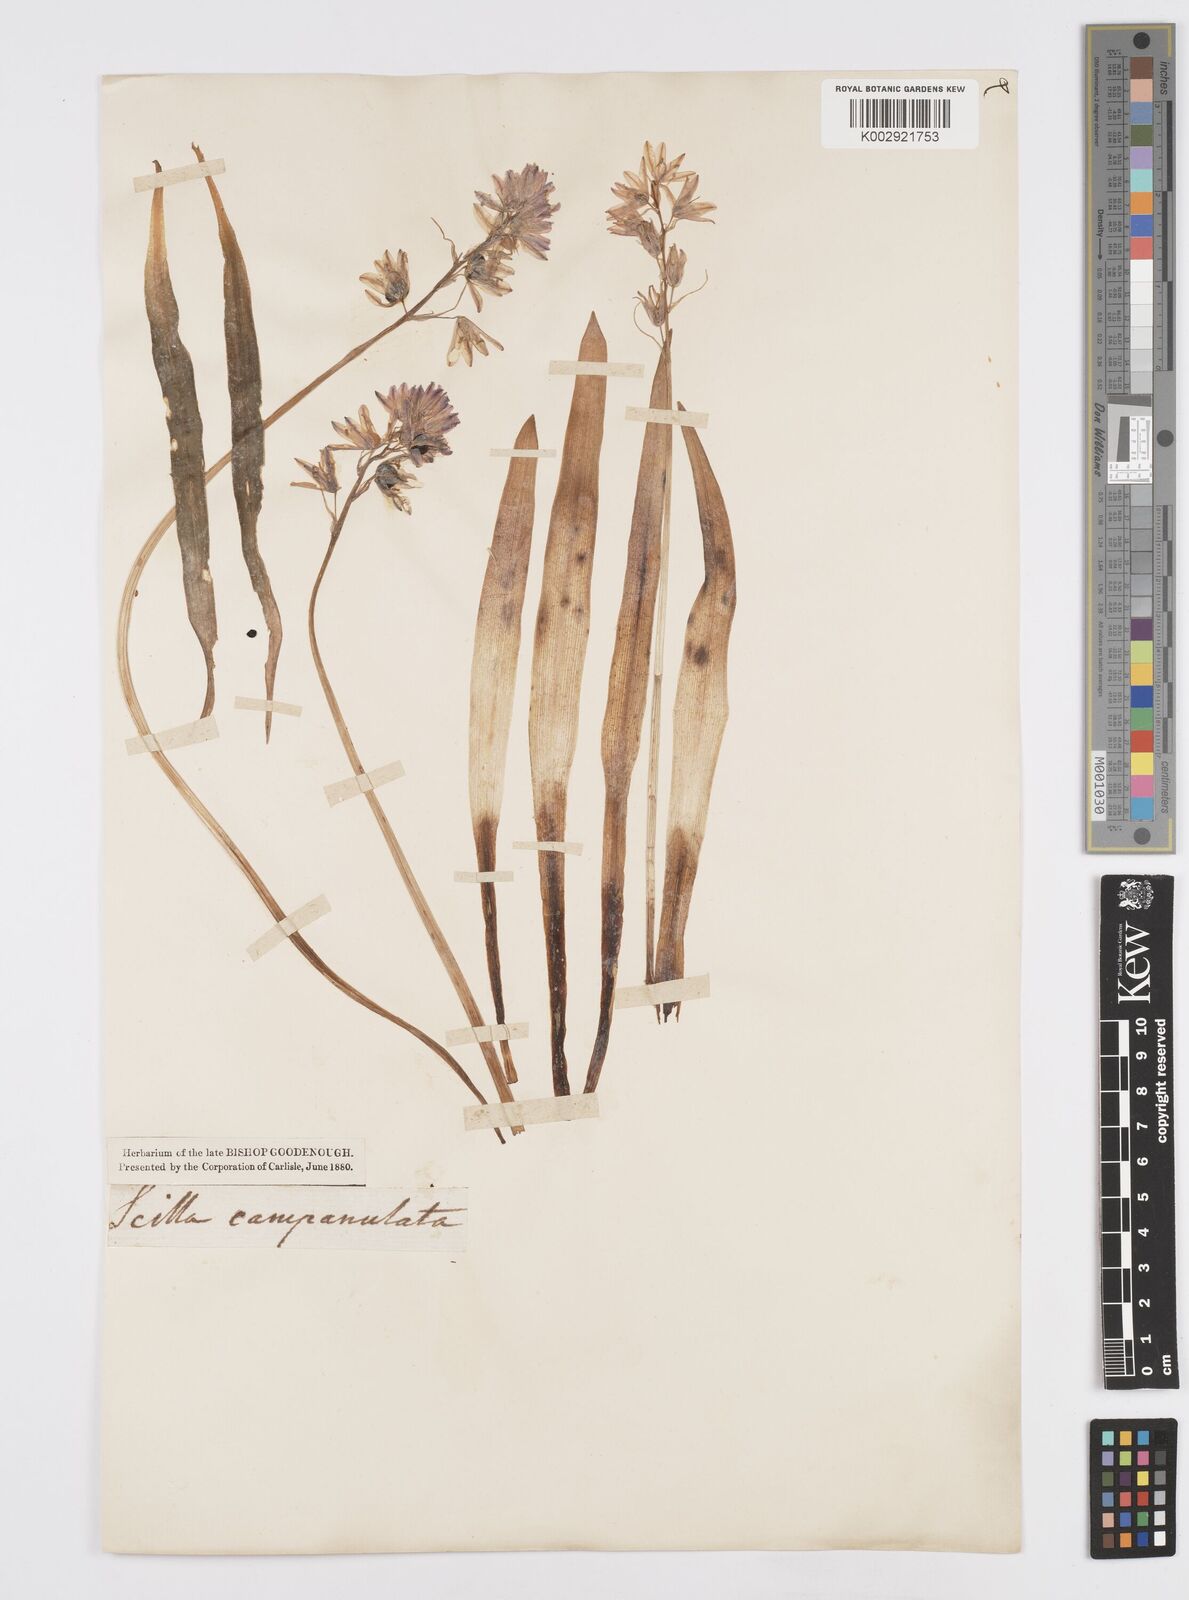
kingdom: Plantae
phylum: Tracheophyta
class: Liliopsida
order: Asparagales
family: Asparagaceae
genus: Hyacinthoides
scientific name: Hyacinthoides hispanica
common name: Spanish bluebell
